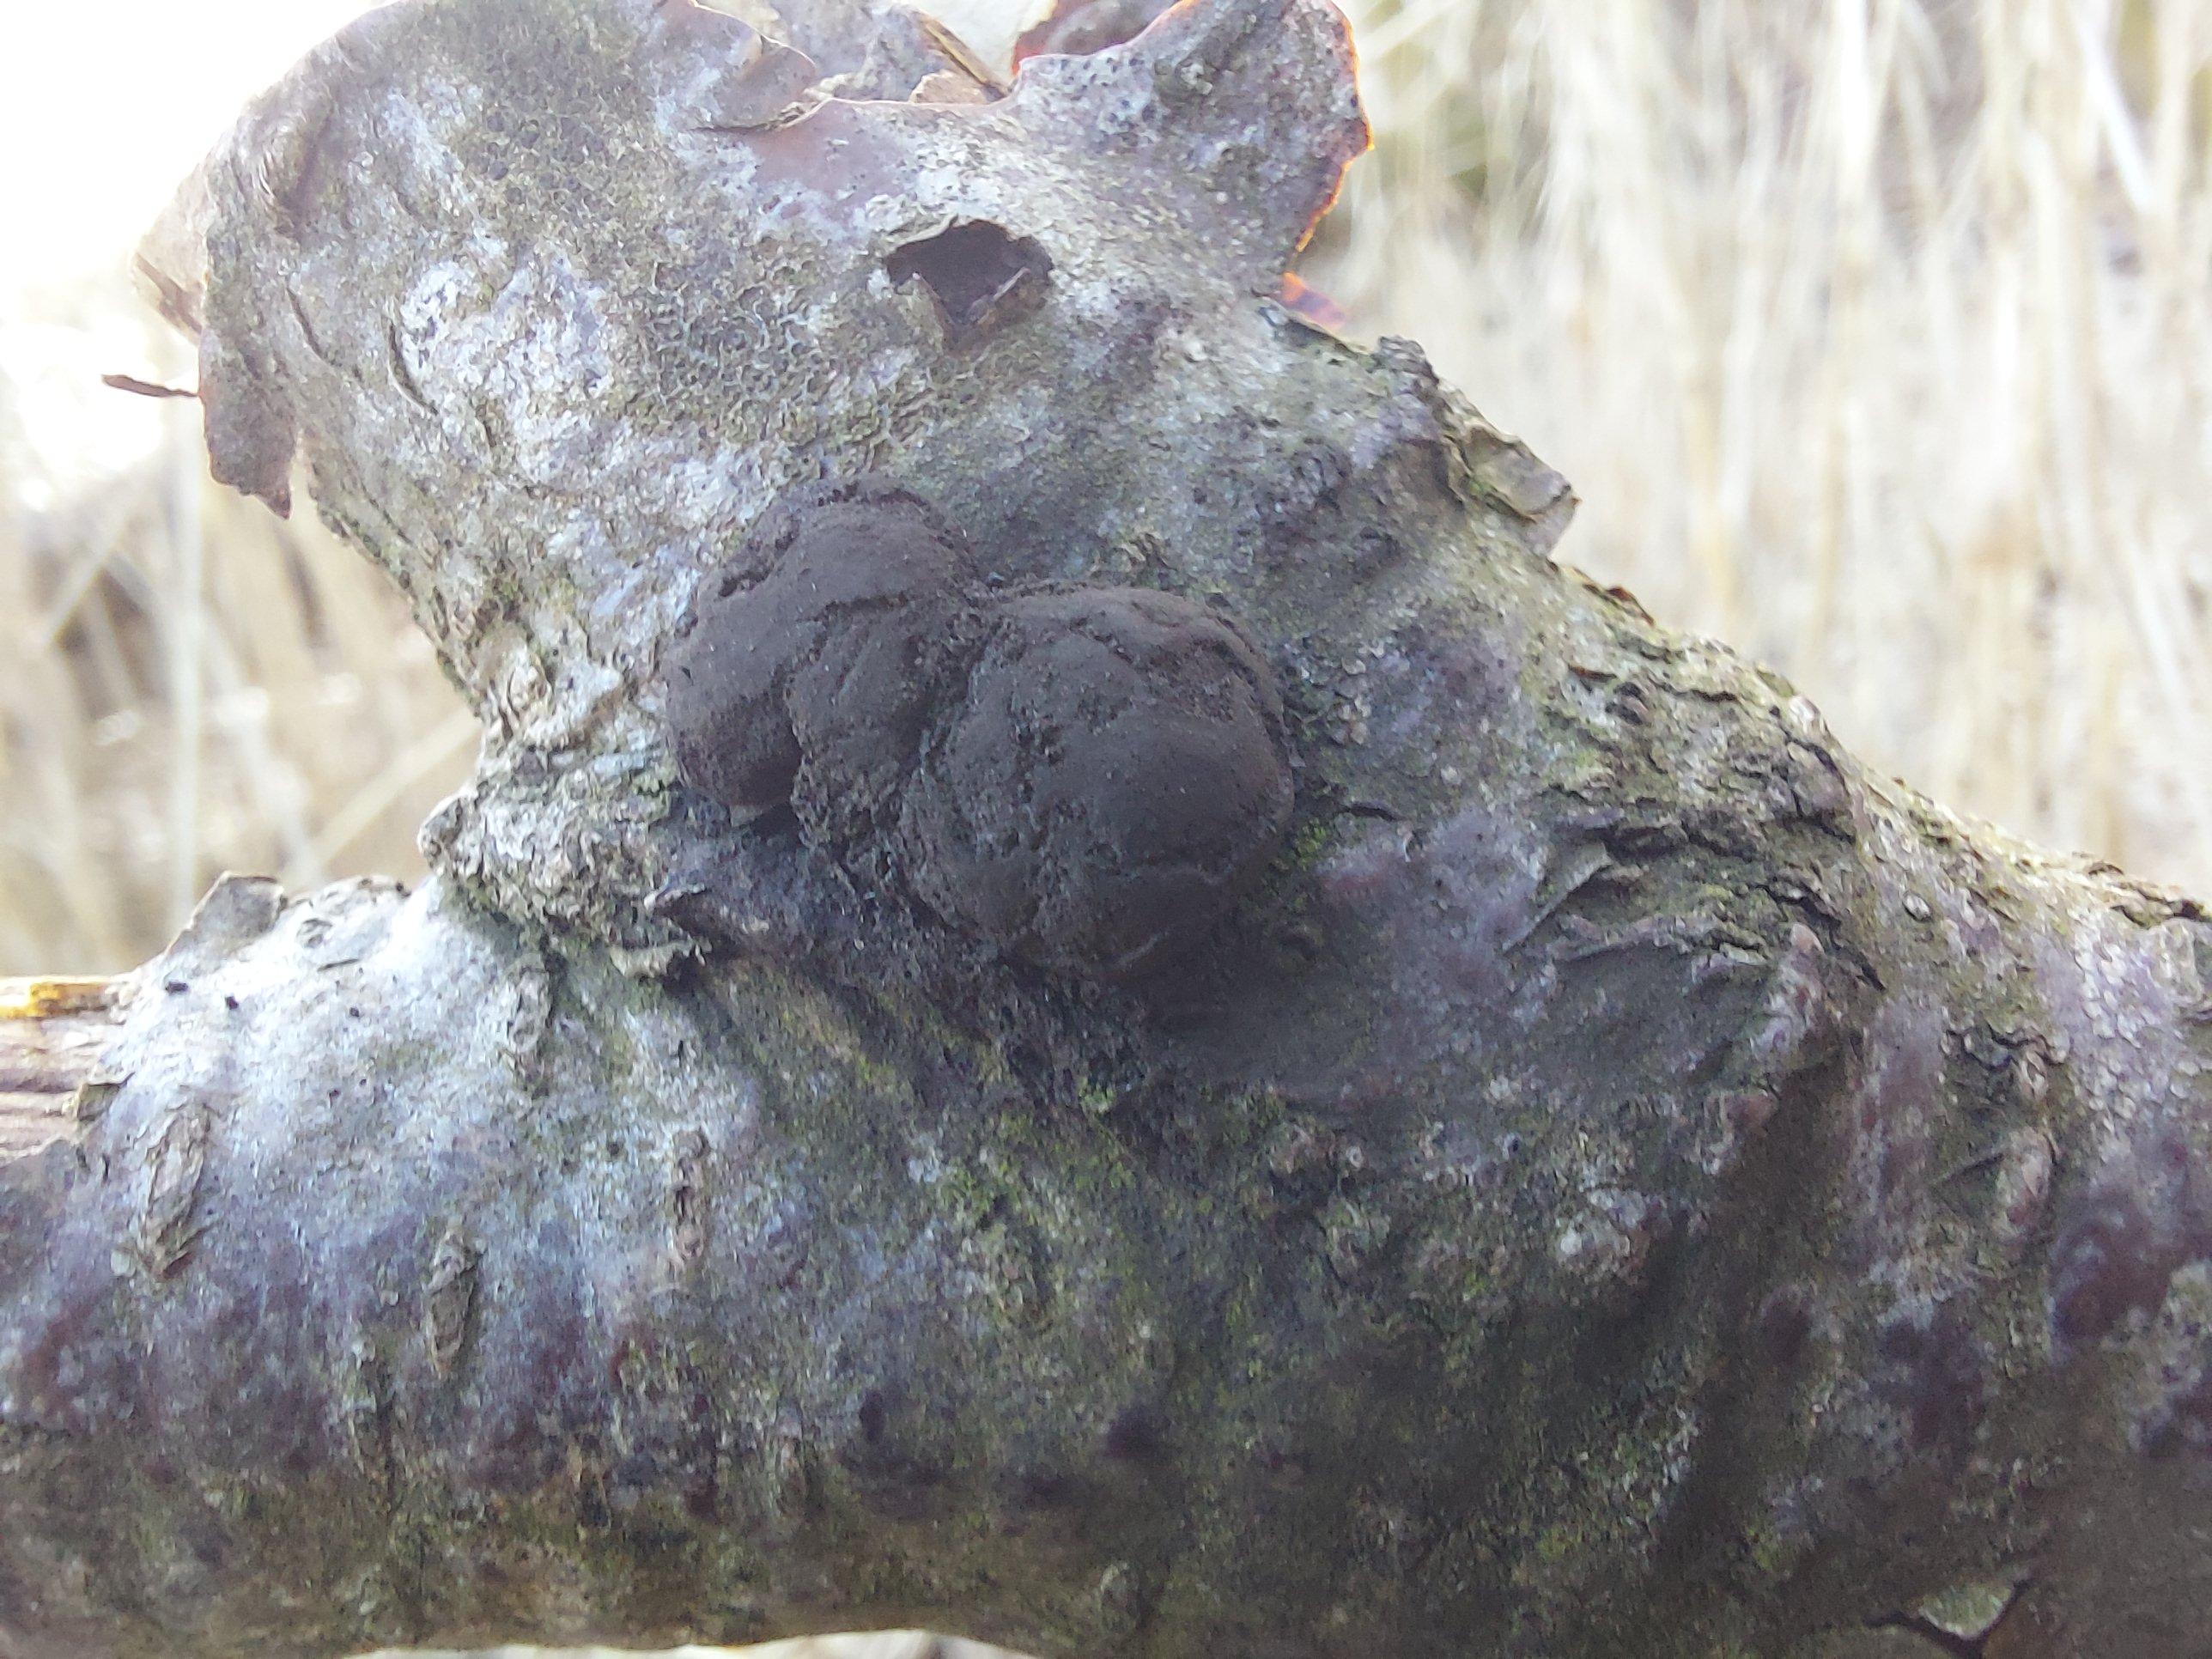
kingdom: Fungi
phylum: Ascomycota
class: Sordariomycetes
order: Xylariales
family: Hypoxylaceae
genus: Daldinia
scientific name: Daldinia
